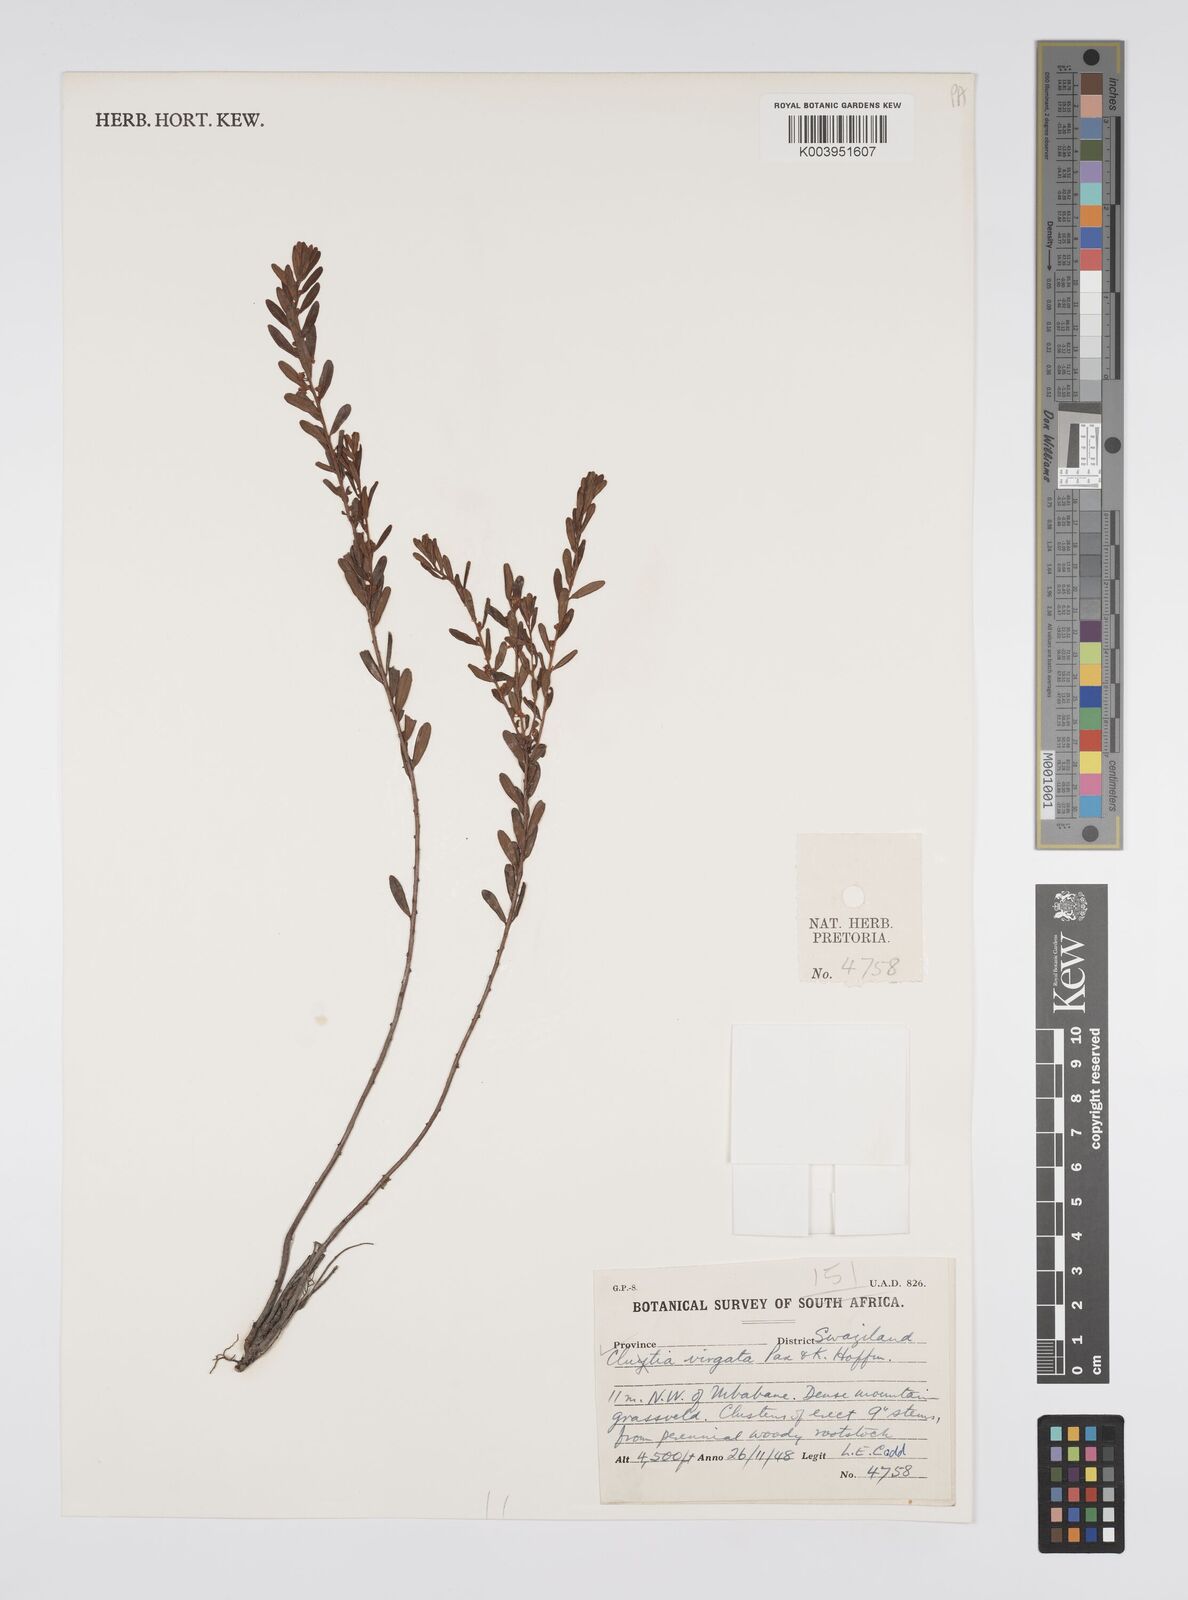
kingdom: Plantae
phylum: Tracheophyta
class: Magnoliopsida
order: Malpighiales
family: Peraceae
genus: Clutia
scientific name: Clutia virgata
